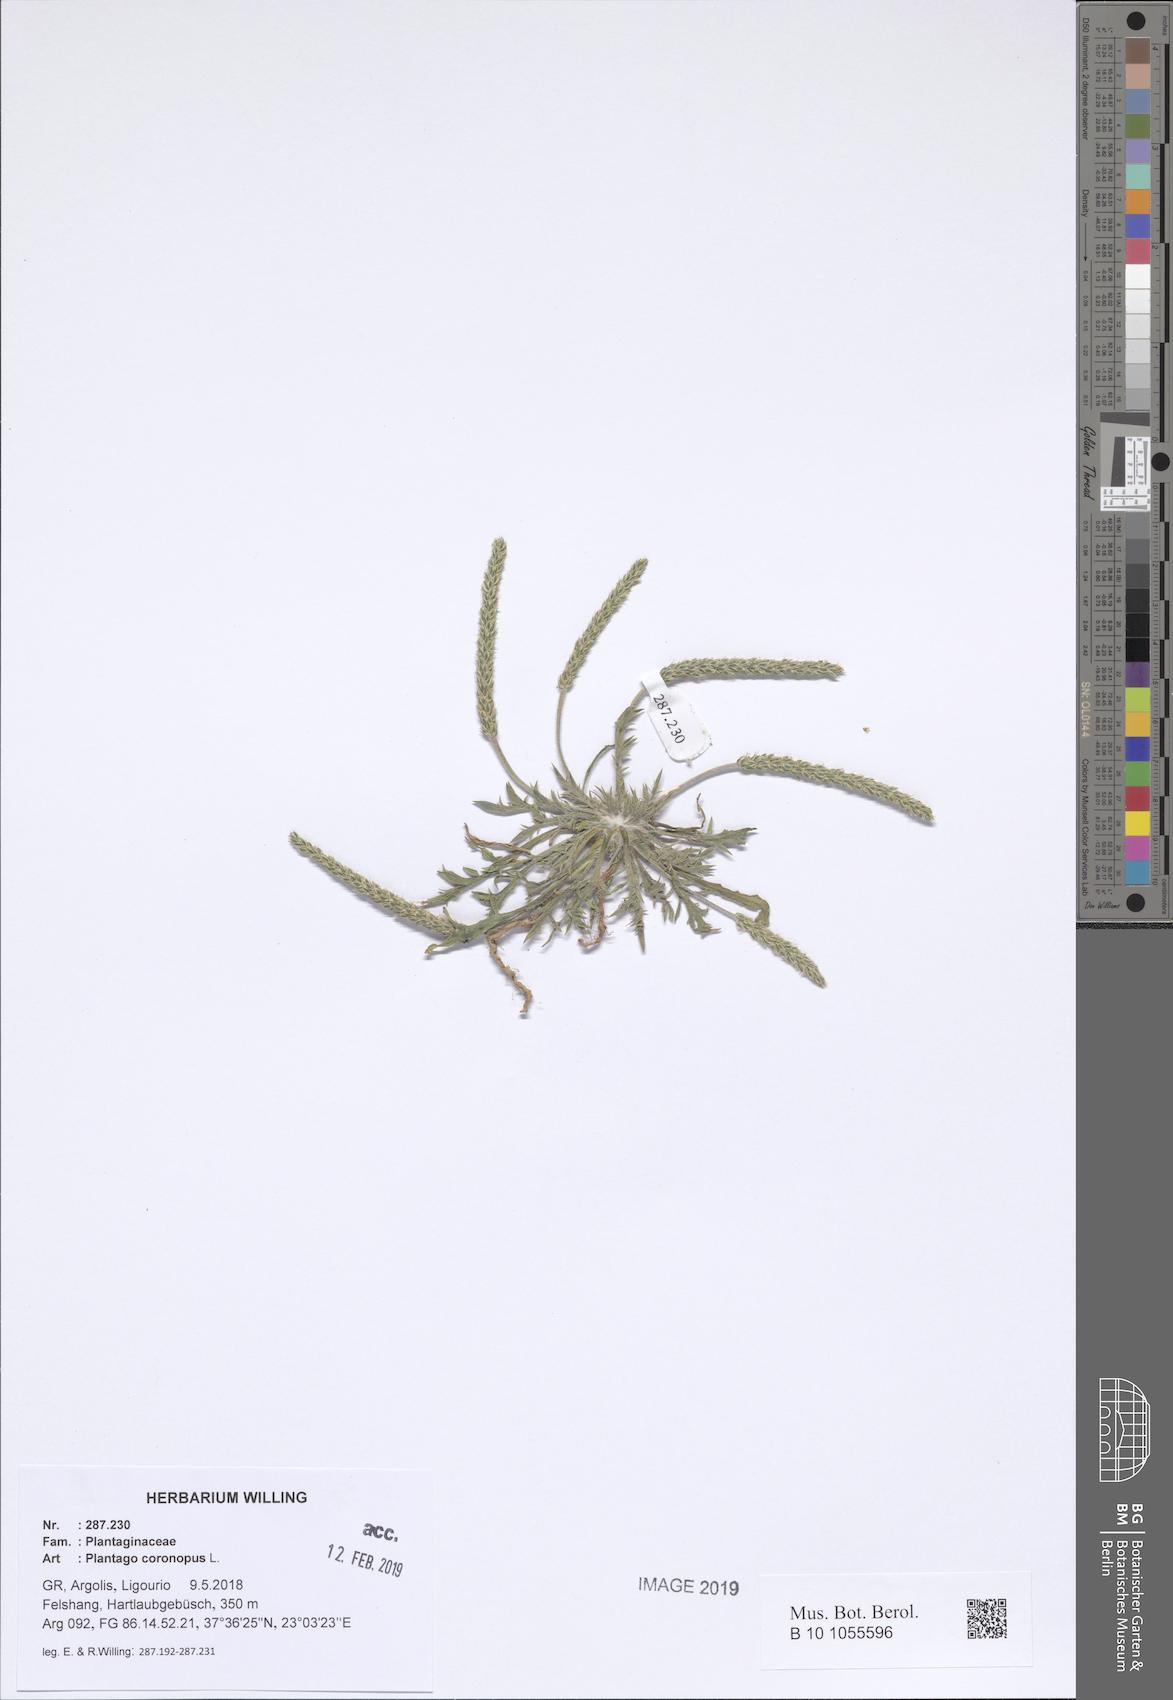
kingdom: Plantae
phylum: Tracheophyta
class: Magnoliopsida
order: Lamiales
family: Plantaginaceae
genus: Plantago
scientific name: Plantago coronopus
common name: Buck's-horn plantain
